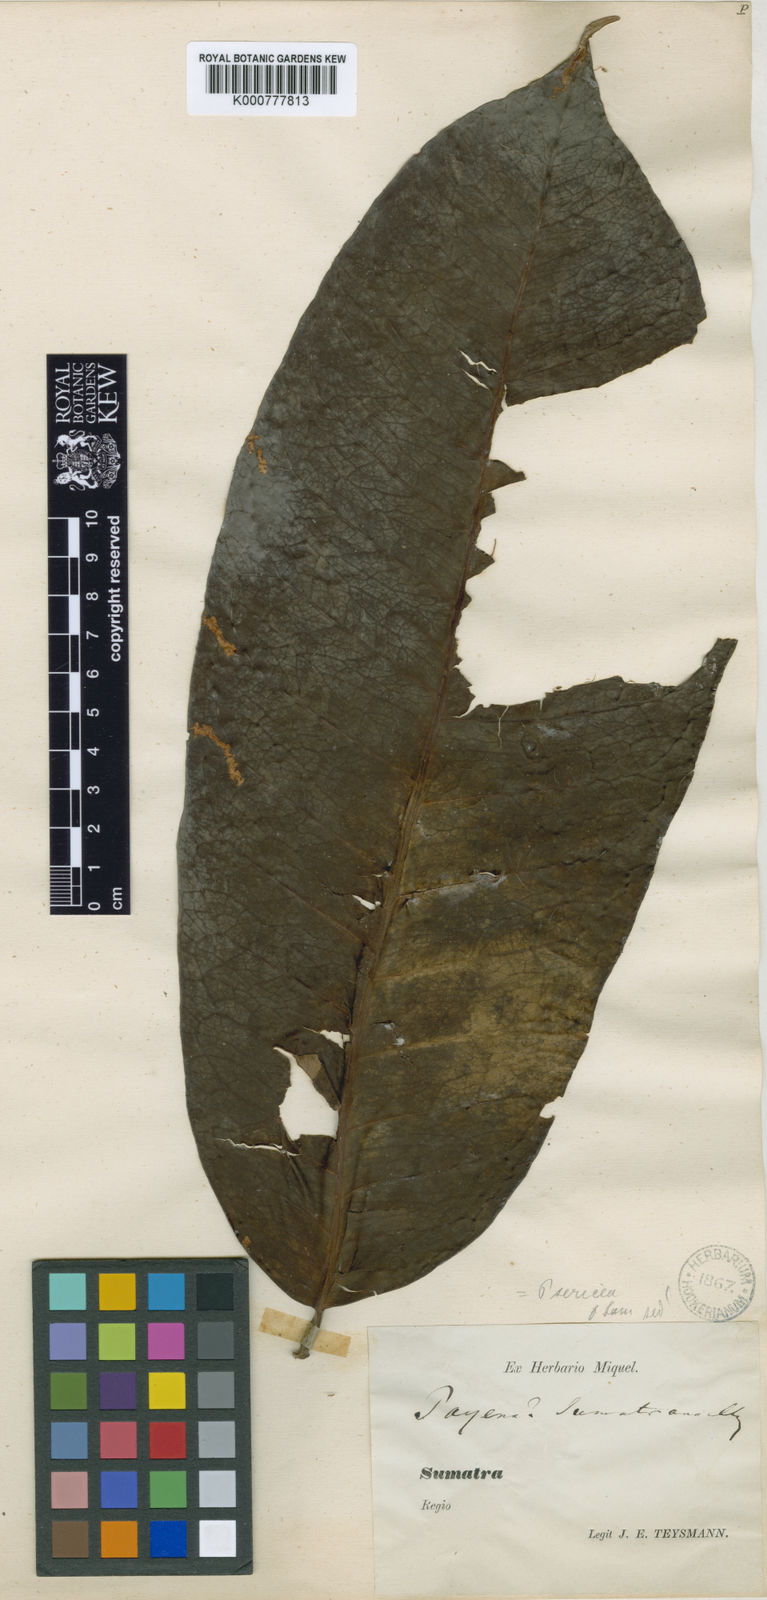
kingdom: Plantae
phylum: Tracheophyta
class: Magnoliopsida
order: Ericales
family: Sapotaceae
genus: Payena
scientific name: Payena acuminata
